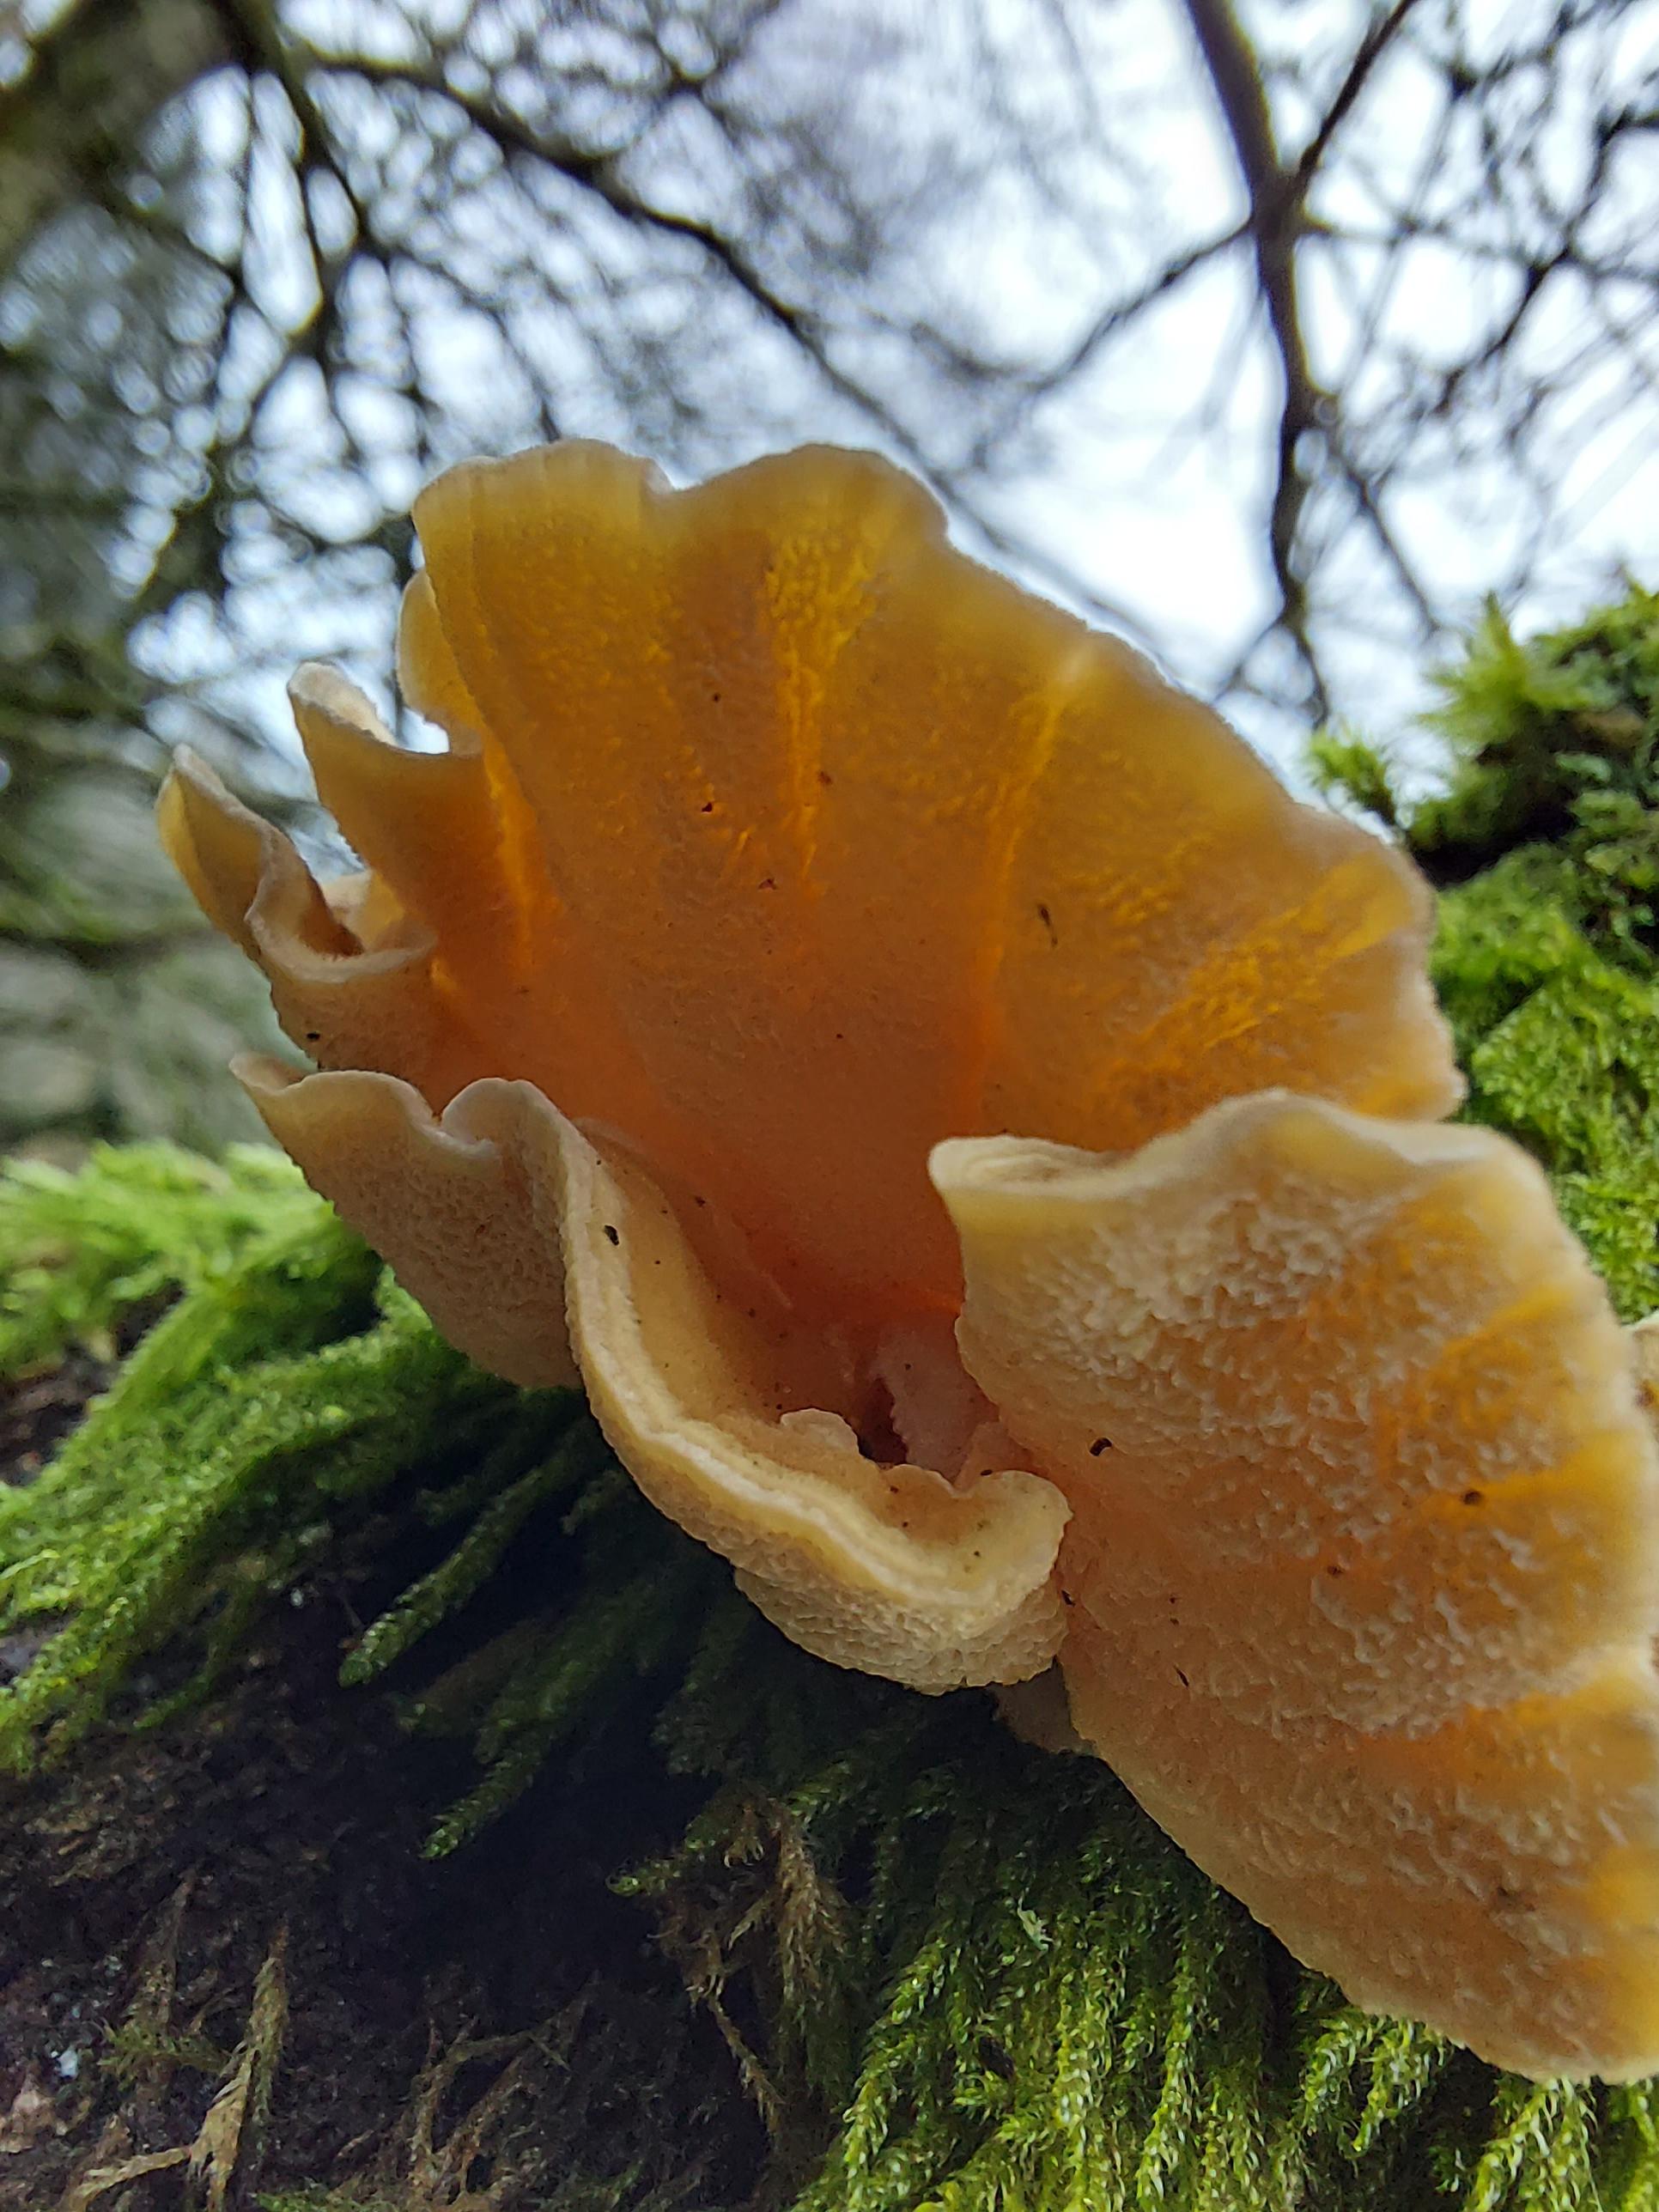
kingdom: Fungi
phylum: Basidiomycota
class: Agaricomycetes
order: Polyporales
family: Polyporaceae
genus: Trametes
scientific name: Trametes versicolor
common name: broget læderporesvamp
